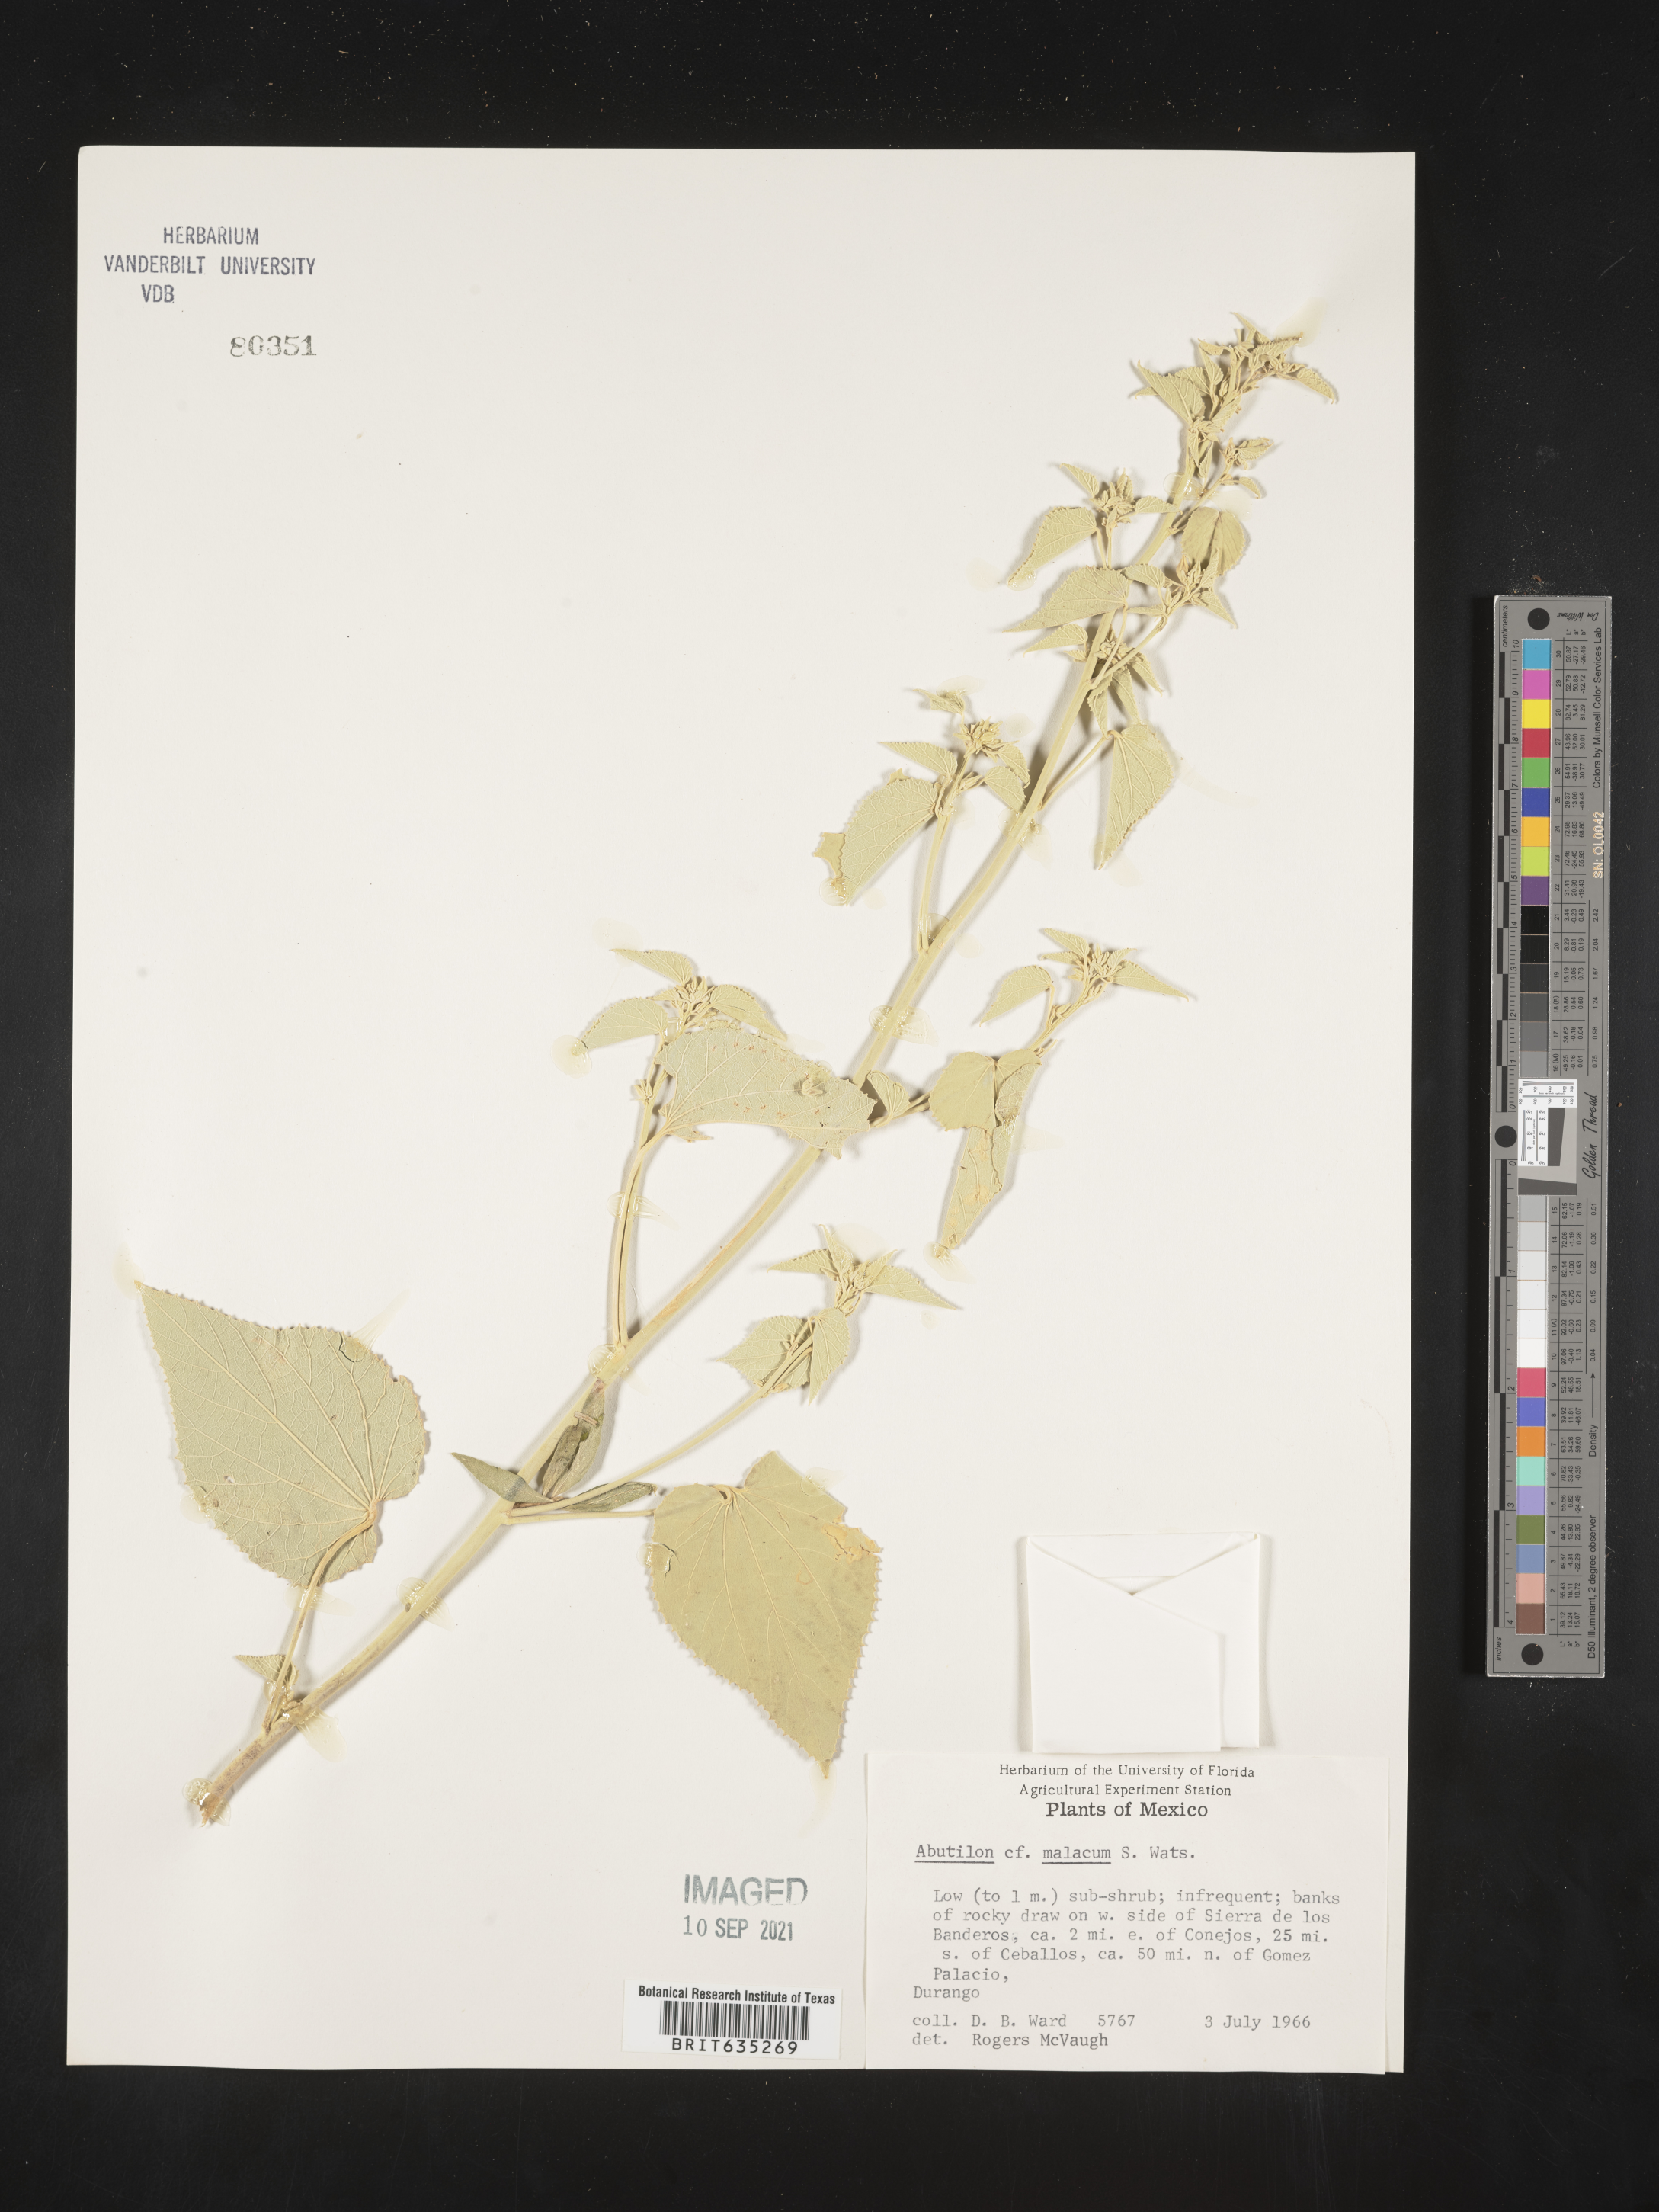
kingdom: Plantae
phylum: Tracheophyta
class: Magnoliopsida
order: Malvales
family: Malvaceae
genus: Abutilon
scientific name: Abutilon
